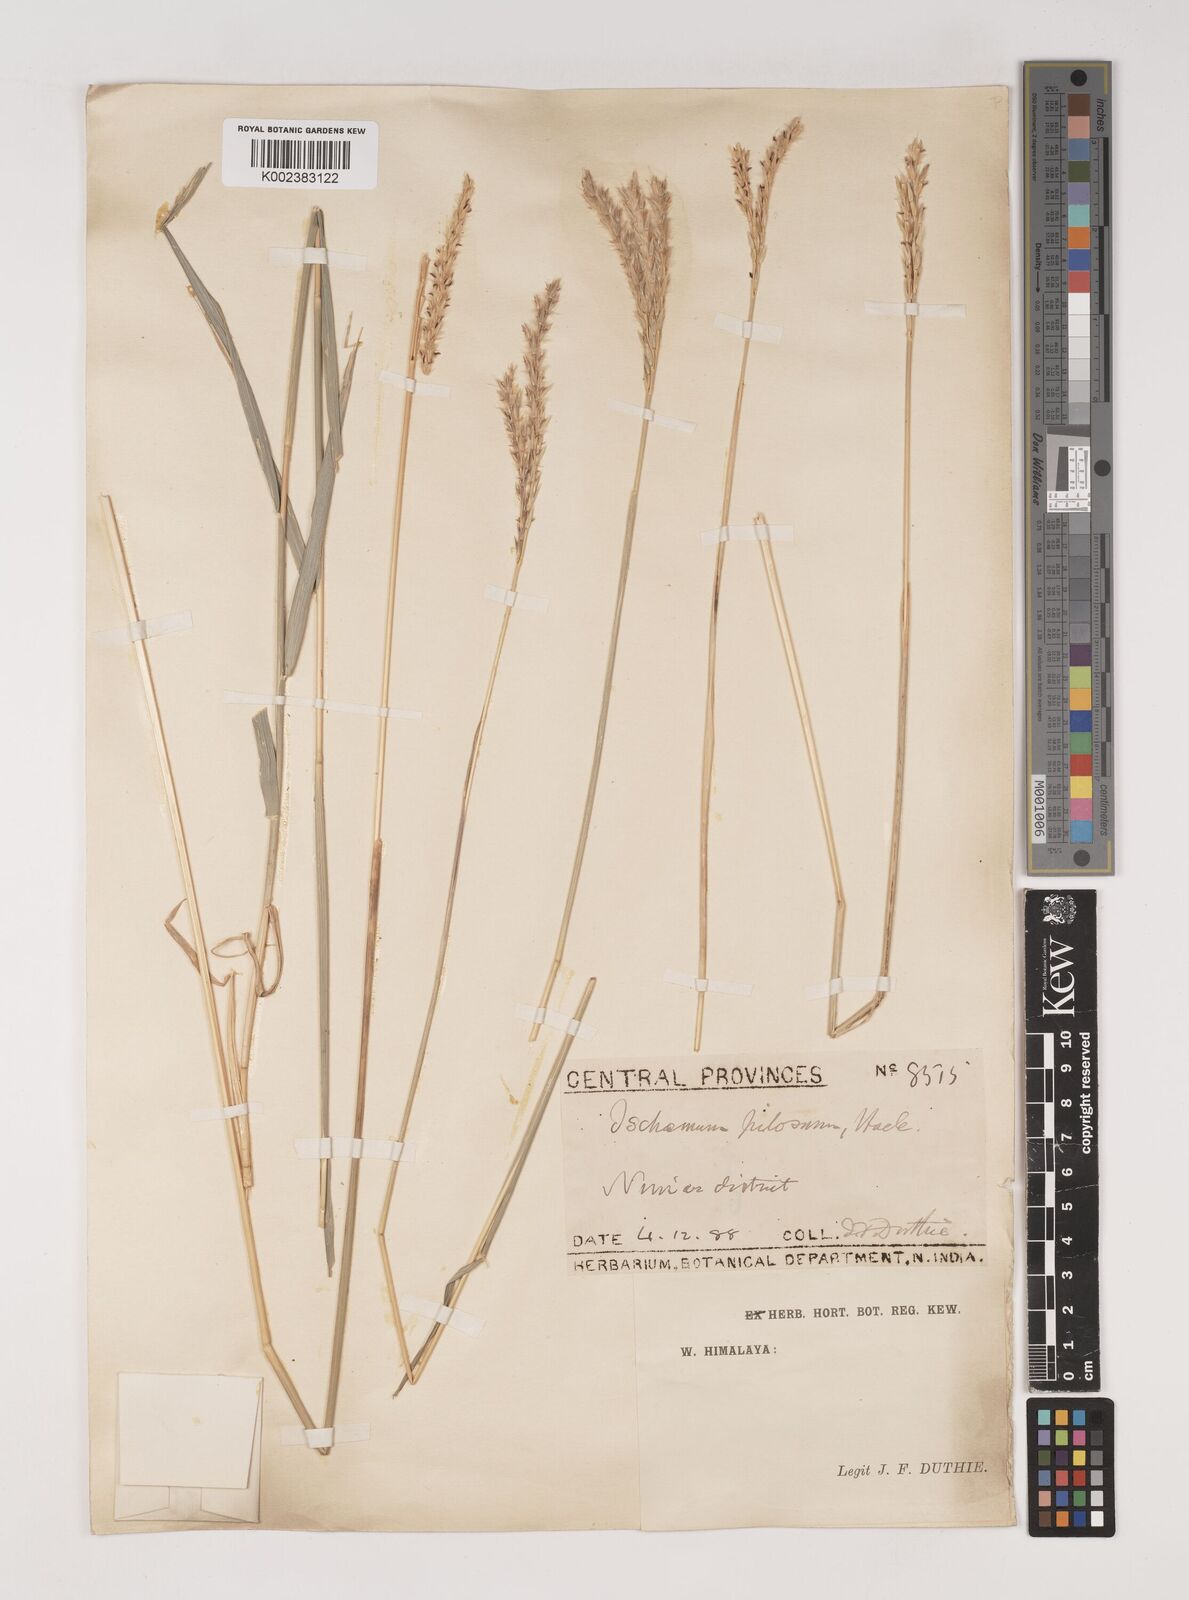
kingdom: Plantae
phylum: Tracheophyta
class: Liliopsida
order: Poales
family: Poaceae
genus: Ischaemum
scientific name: Ischaemum afrum
